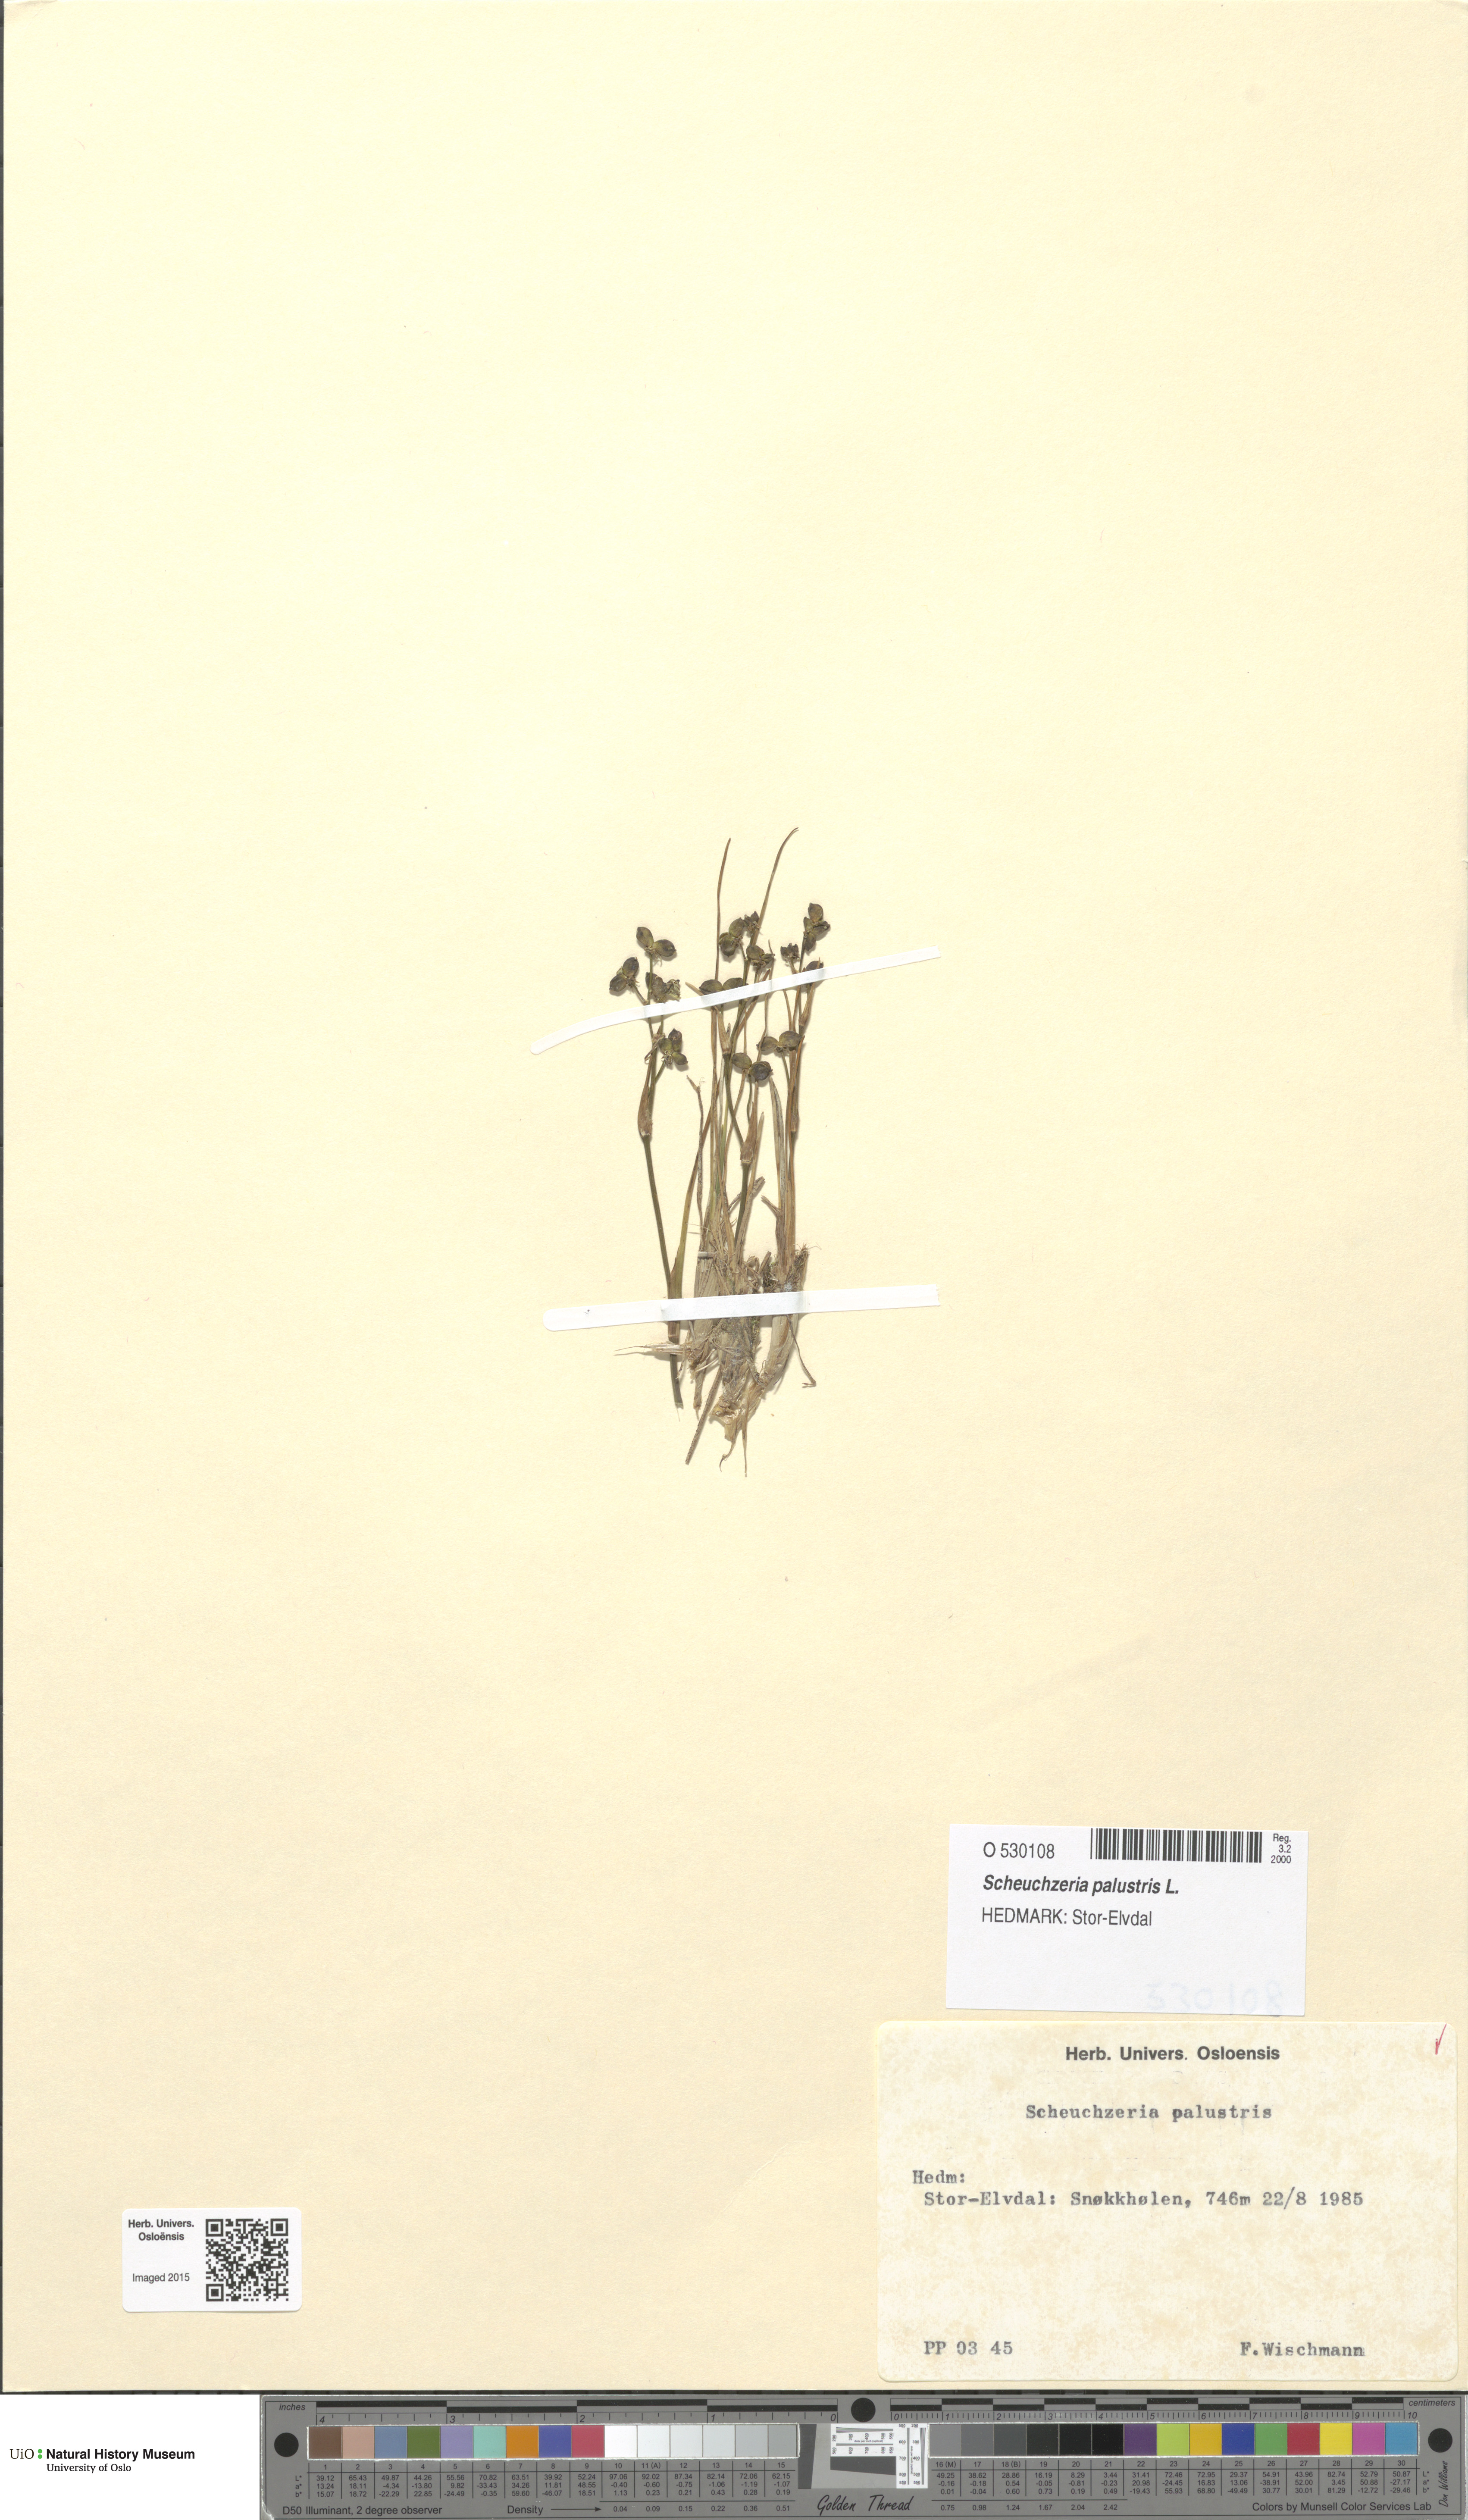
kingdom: Plantae
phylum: Tracheophyta
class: Liliopsida
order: Alismatales
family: Scheuchzeriaceae
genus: Scheuchzeria
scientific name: Scheuchzeria palustris
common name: Rannoch-rush
